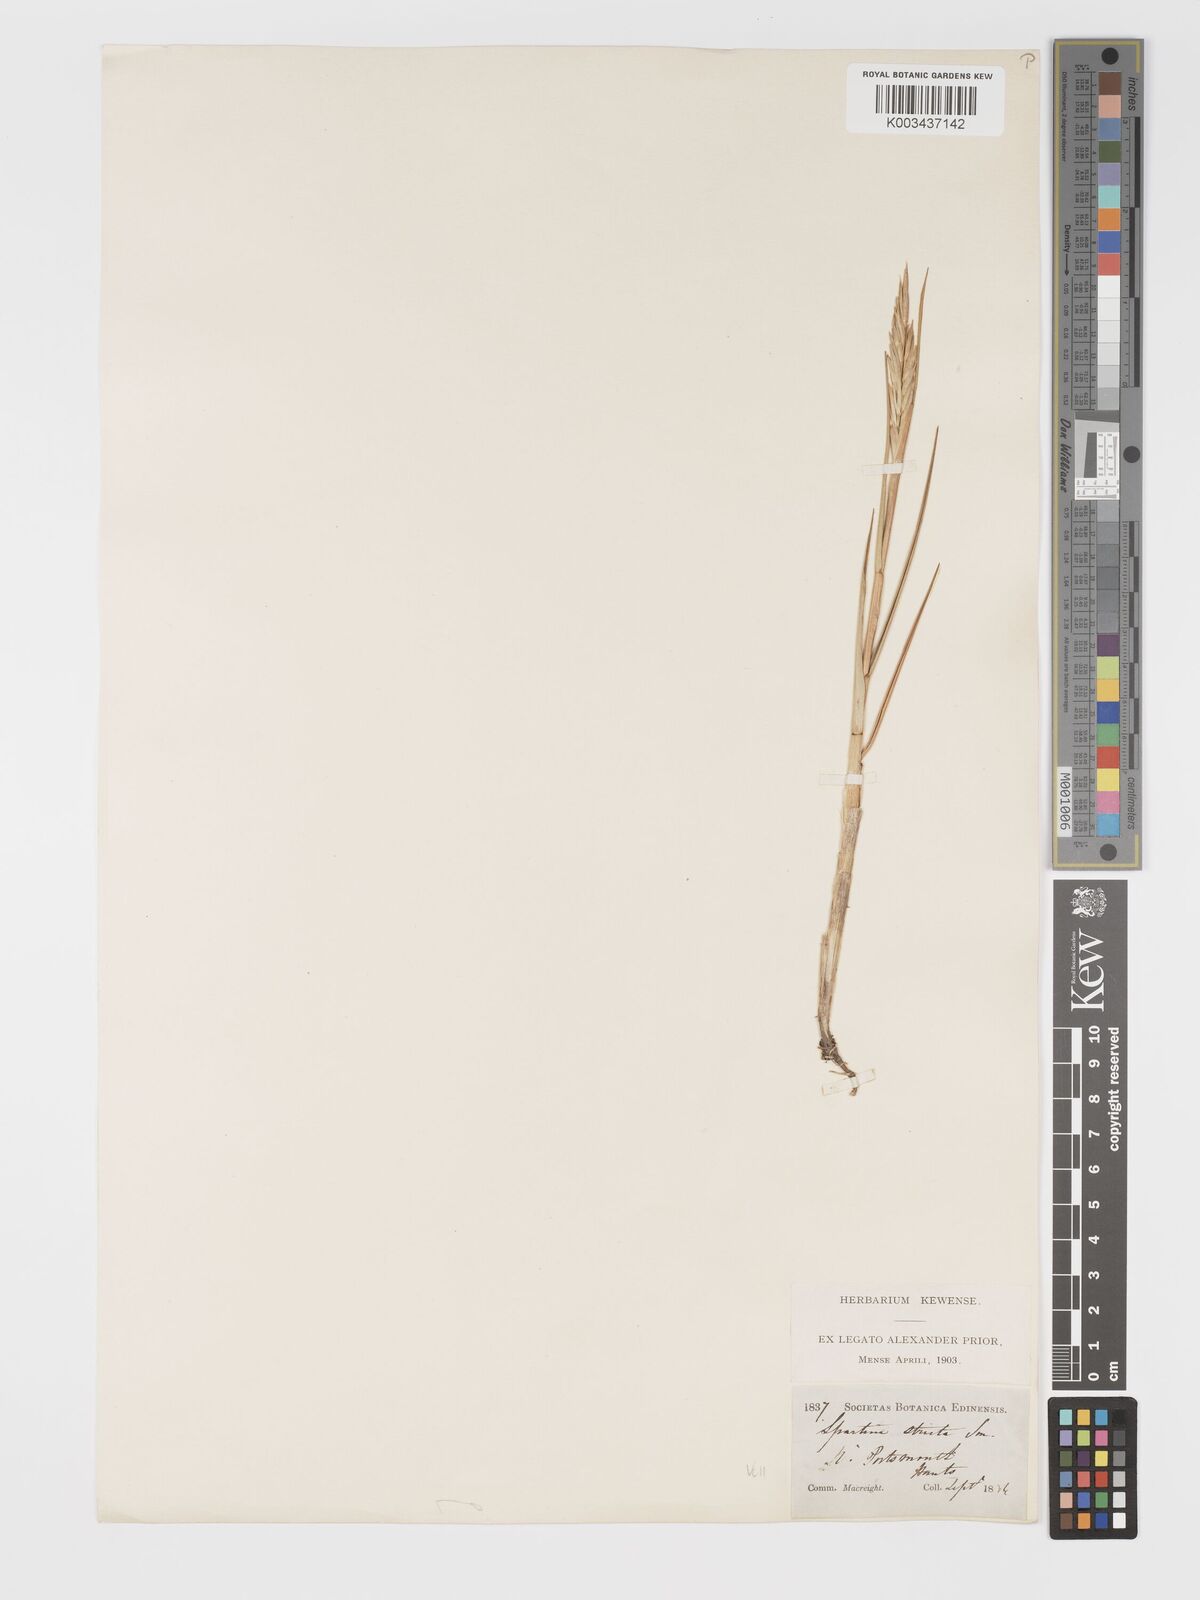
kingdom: Plantae
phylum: Tracheophyta
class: Liliopsida
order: Poales
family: Poaceae
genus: Sporobolus
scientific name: Sporobolus maritimus
